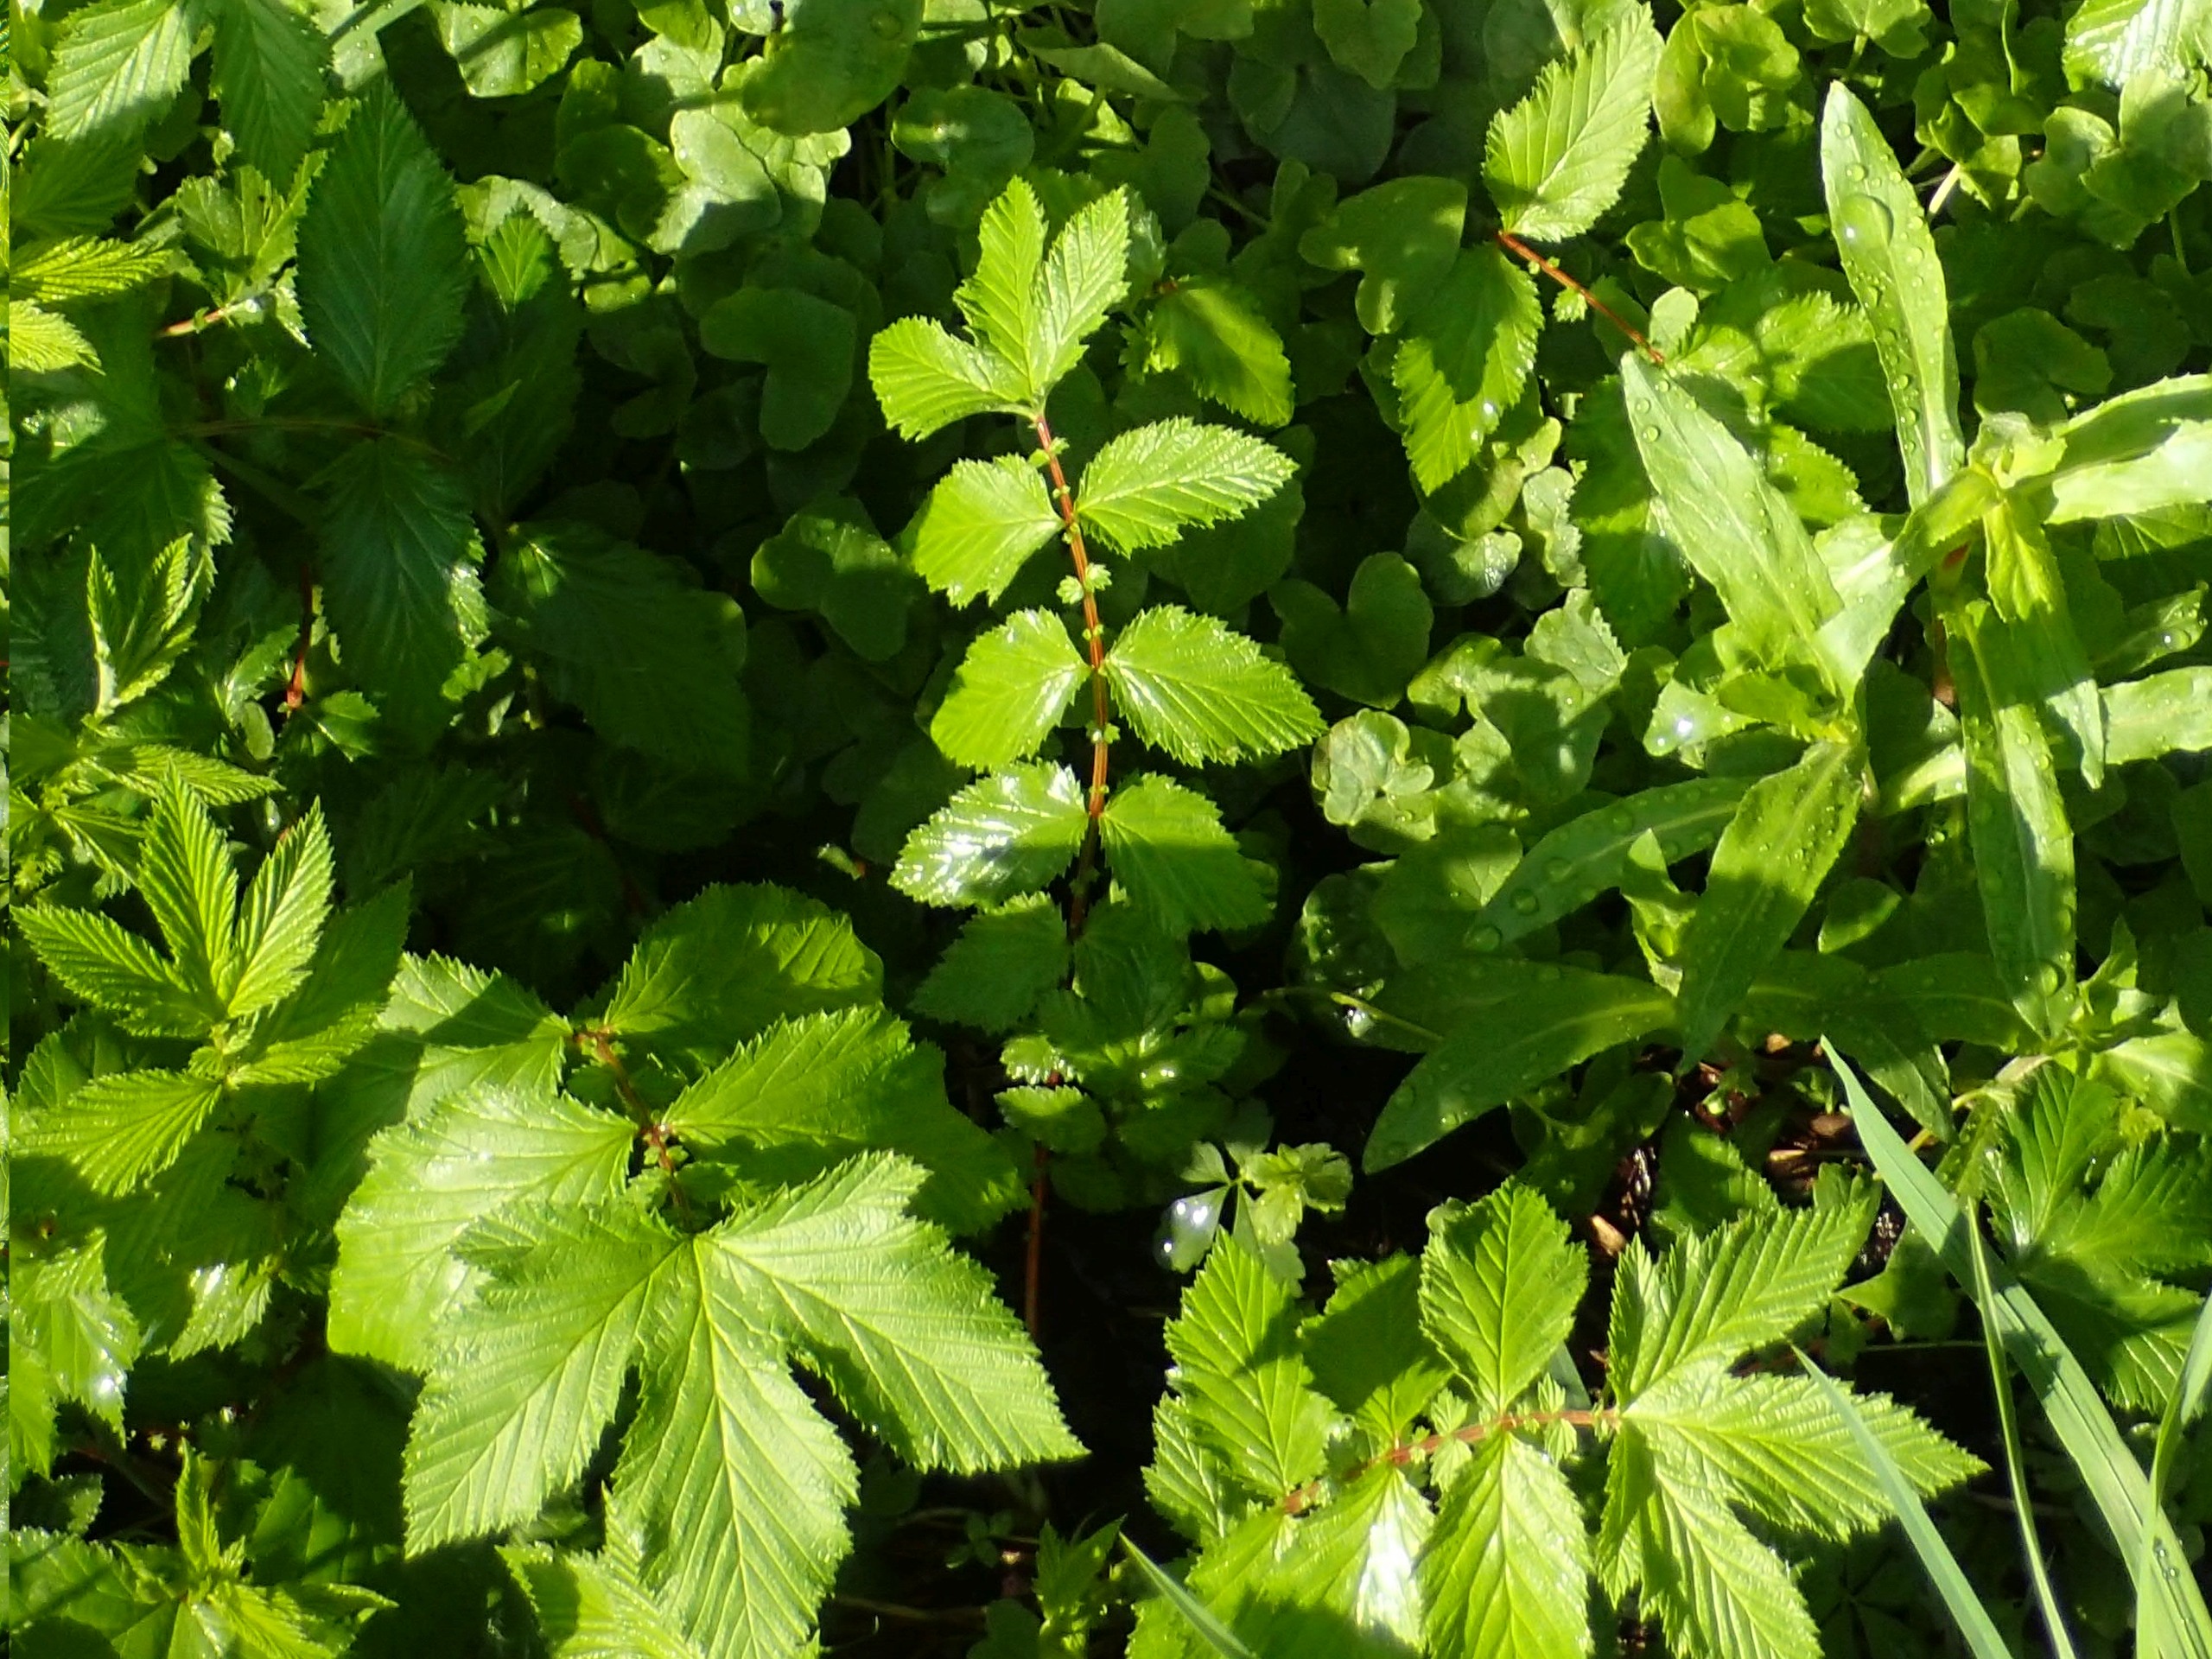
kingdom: Plantae
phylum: Tracheophyta
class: Magnoliopsida
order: Rosales
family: Rosaceae
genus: Filipendula
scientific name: Filipendula ulmaria
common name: Almindelig mjødurt
